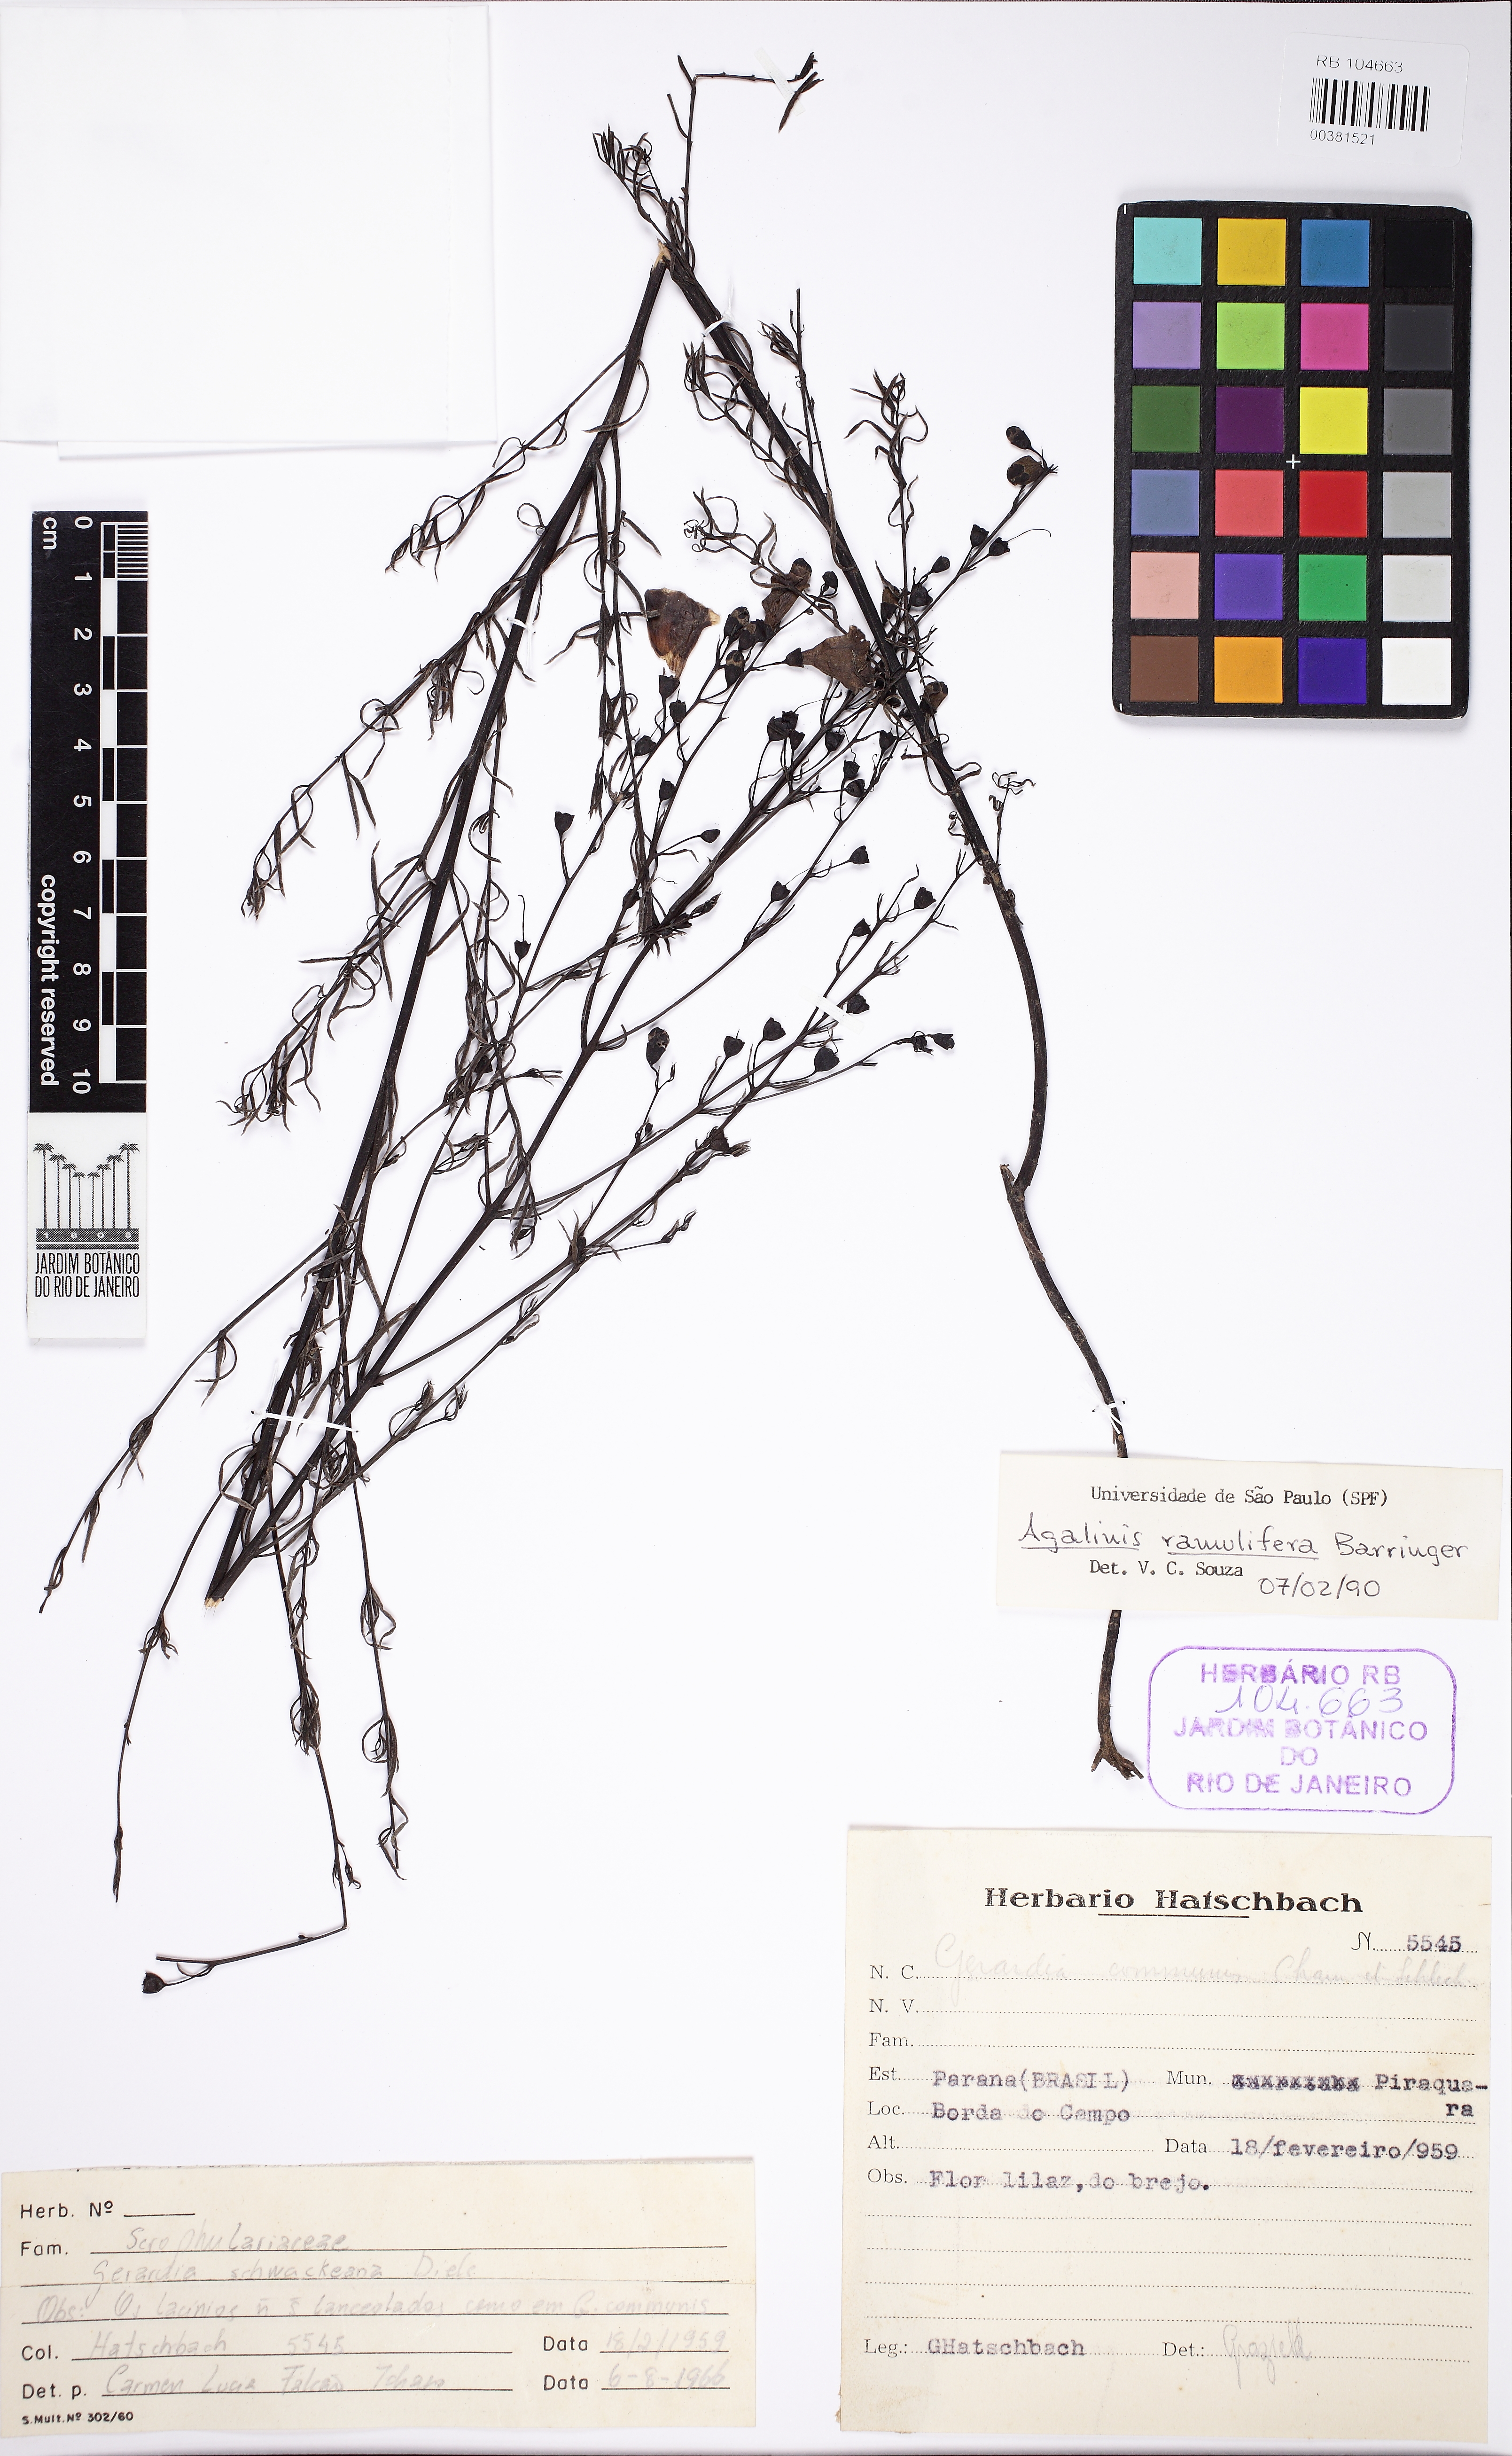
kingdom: Plantae
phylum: Tracheophyta
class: Magnoliopsida
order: Lamiales
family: Orobanchaceae
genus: Agalinis
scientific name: Agalinis ramulifera
